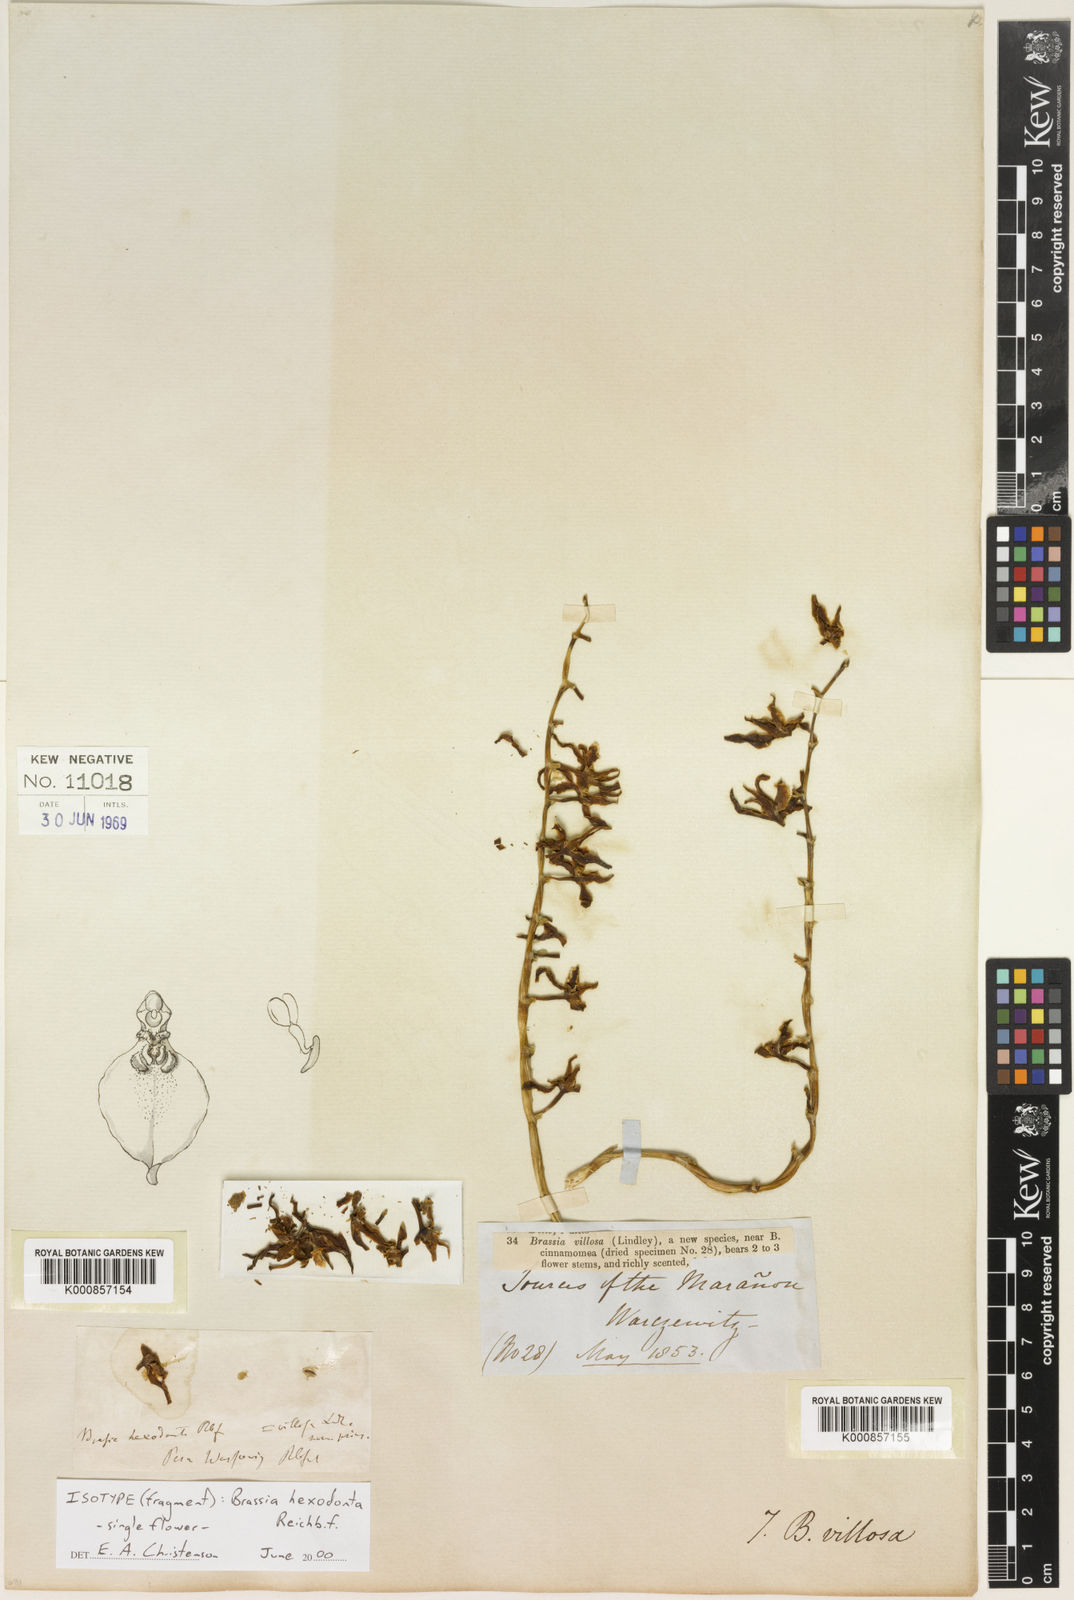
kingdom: Plantae
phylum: Tracheophyta
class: Liliopsida
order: Asparagales
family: Orchidaceae
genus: Brassia
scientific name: Brassia villosa
